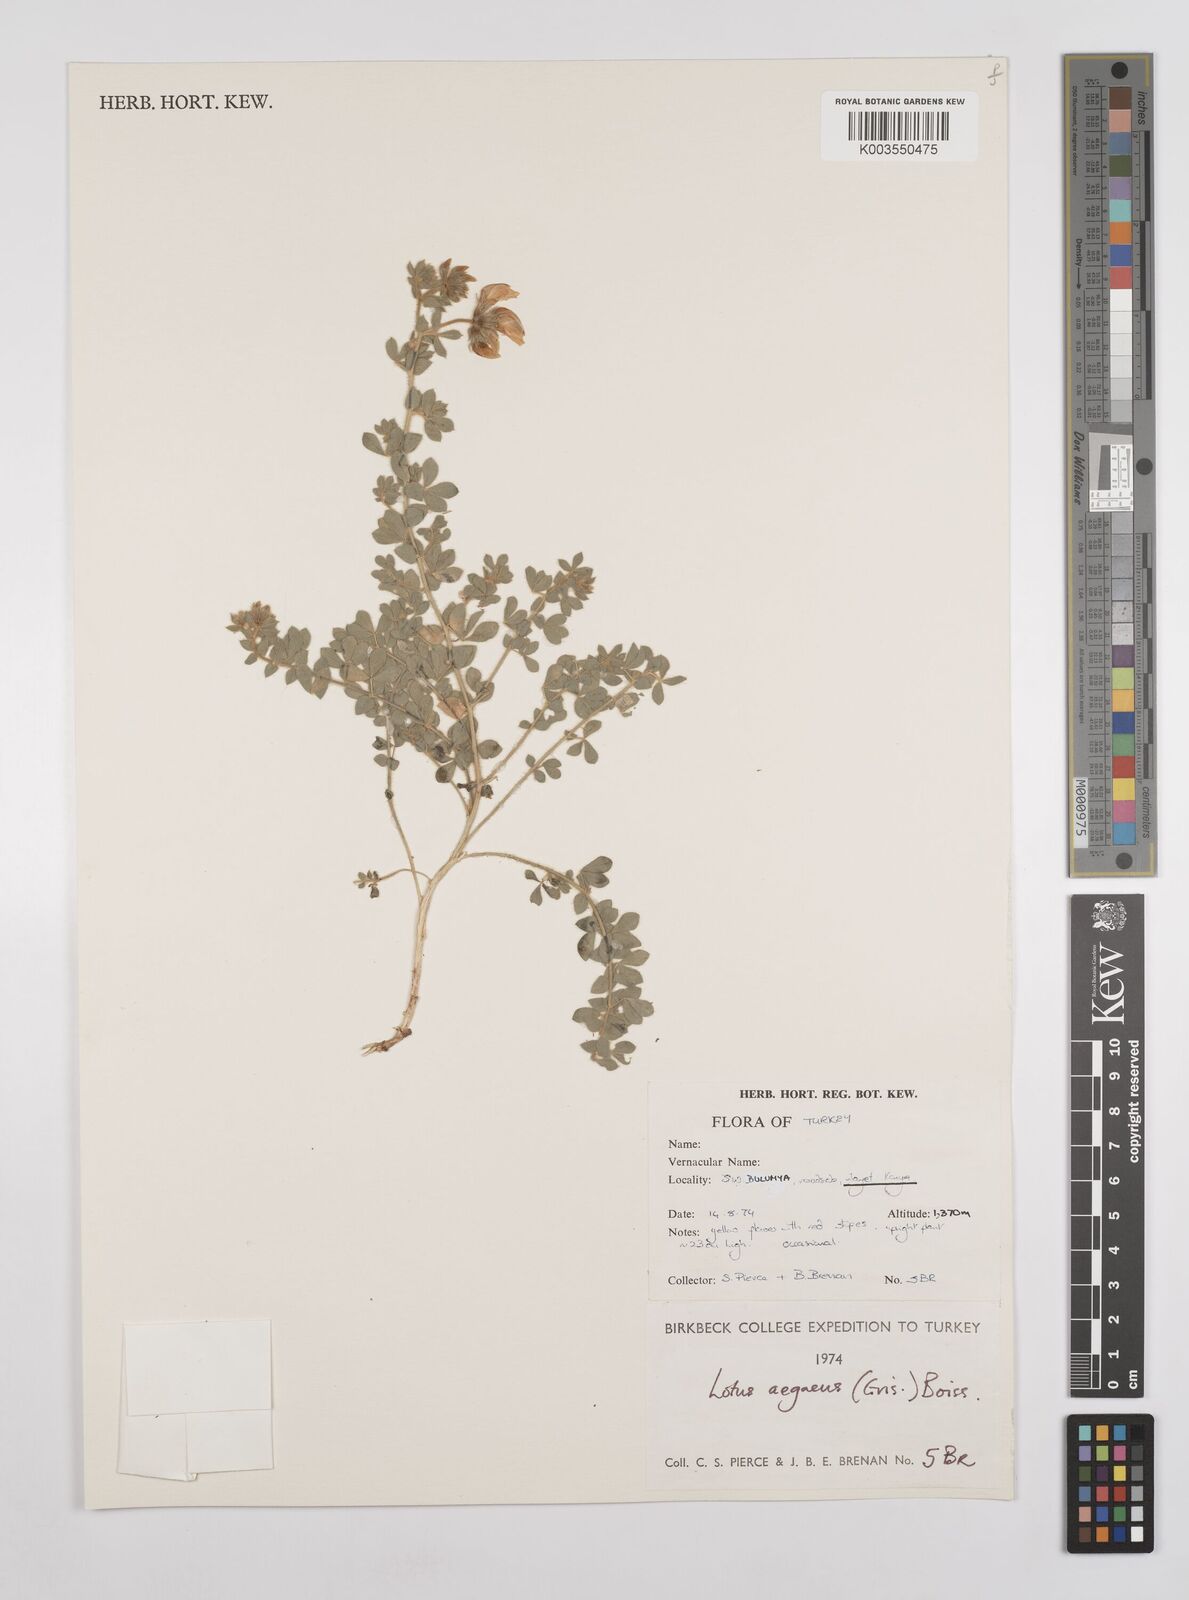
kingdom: Plantae
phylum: Tracheophyta
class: Magnoliopsida
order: Fabales
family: Fabaceae
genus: Lotus
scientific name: Lotus aegaeus
